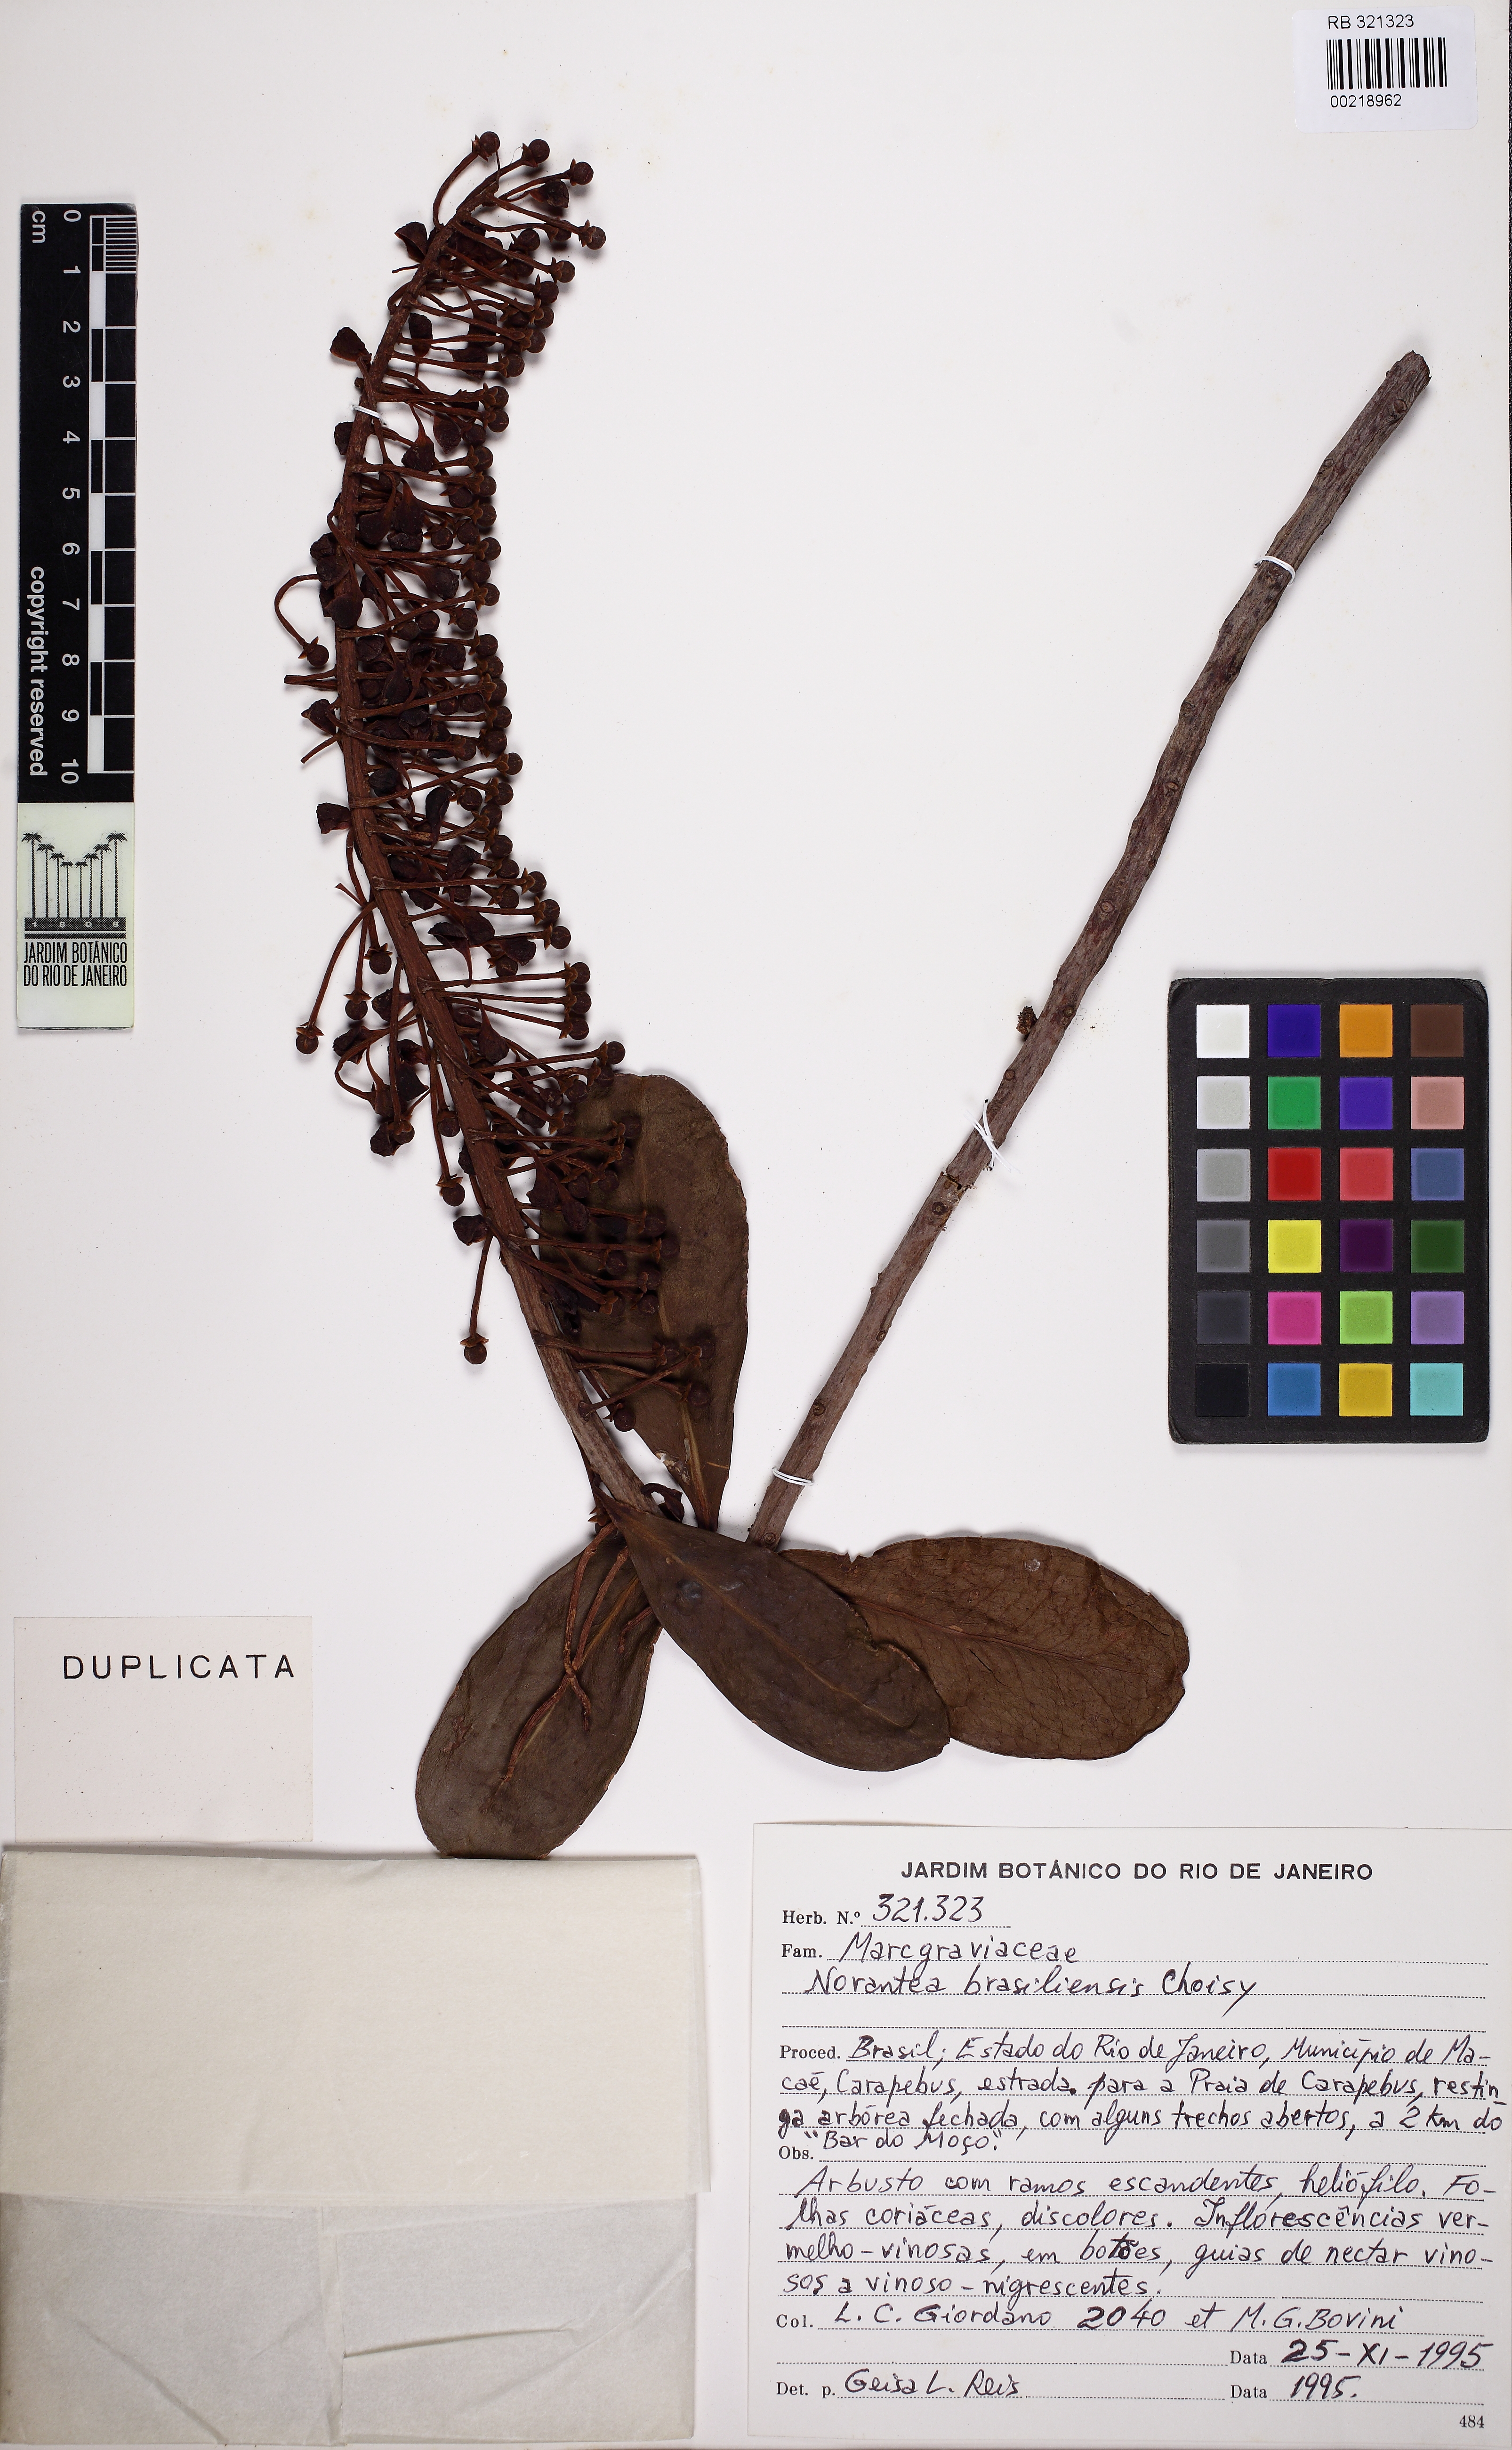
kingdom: Plantae
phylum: Tracheophyta
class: Magnoliopsida
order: Ericales
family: Marcgraviaceae
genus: Schwartzia
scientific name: Schwartzia brasiliensis
